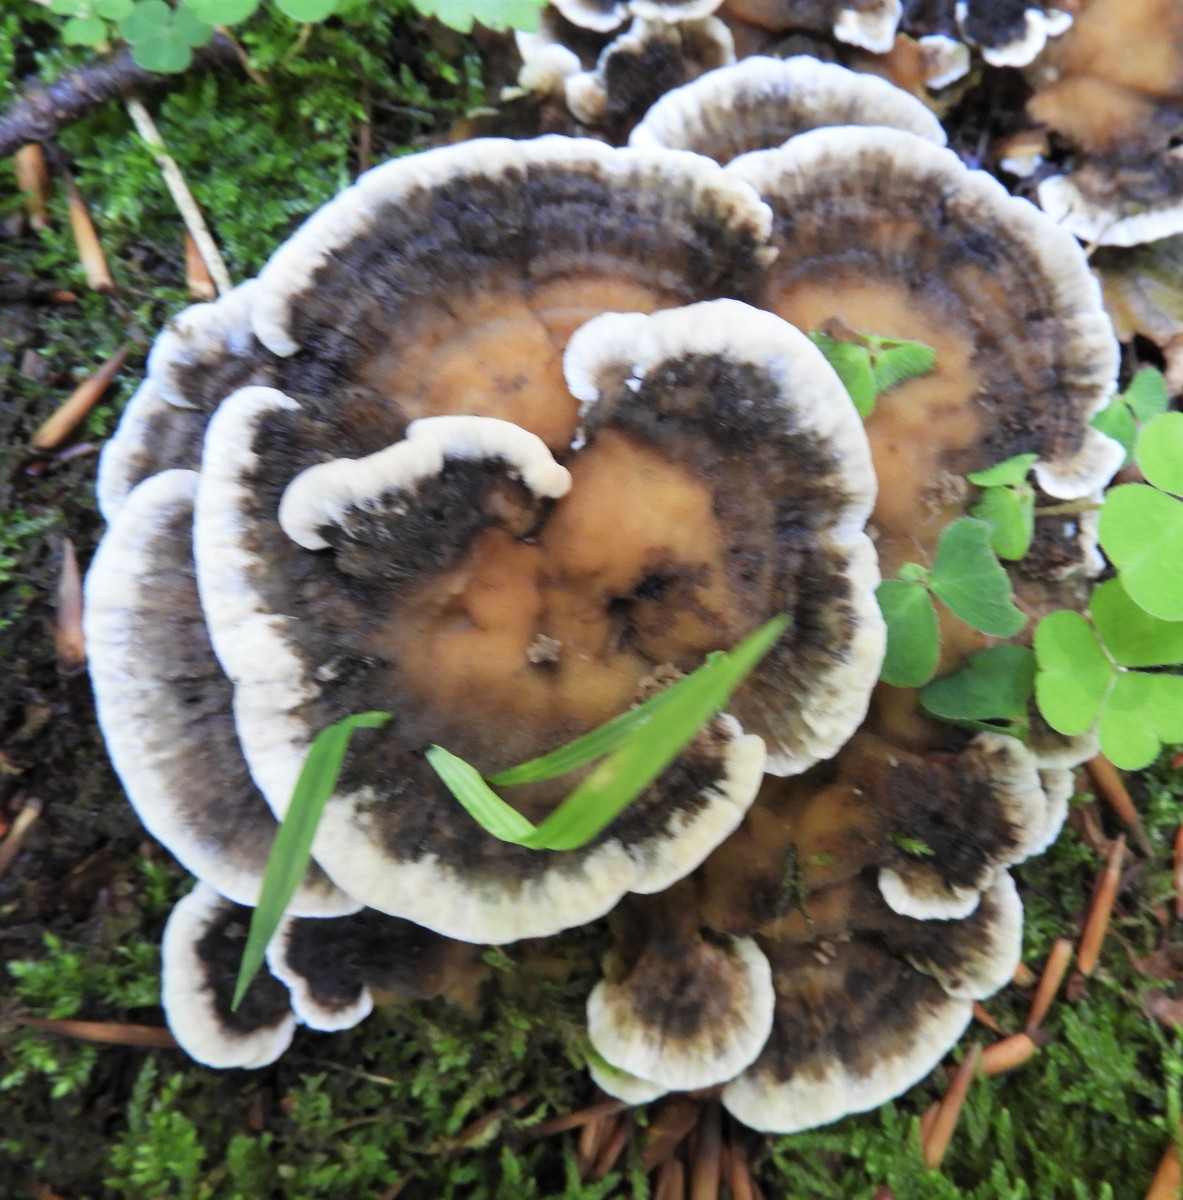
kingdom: Fungi
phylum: Basidiomycota
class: Agaricomycetes
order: Polyporales
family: Phanerochaetaceae
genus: Bjerkandera
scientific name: Bjerkandera adusta
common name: sveden sodporesvamp
